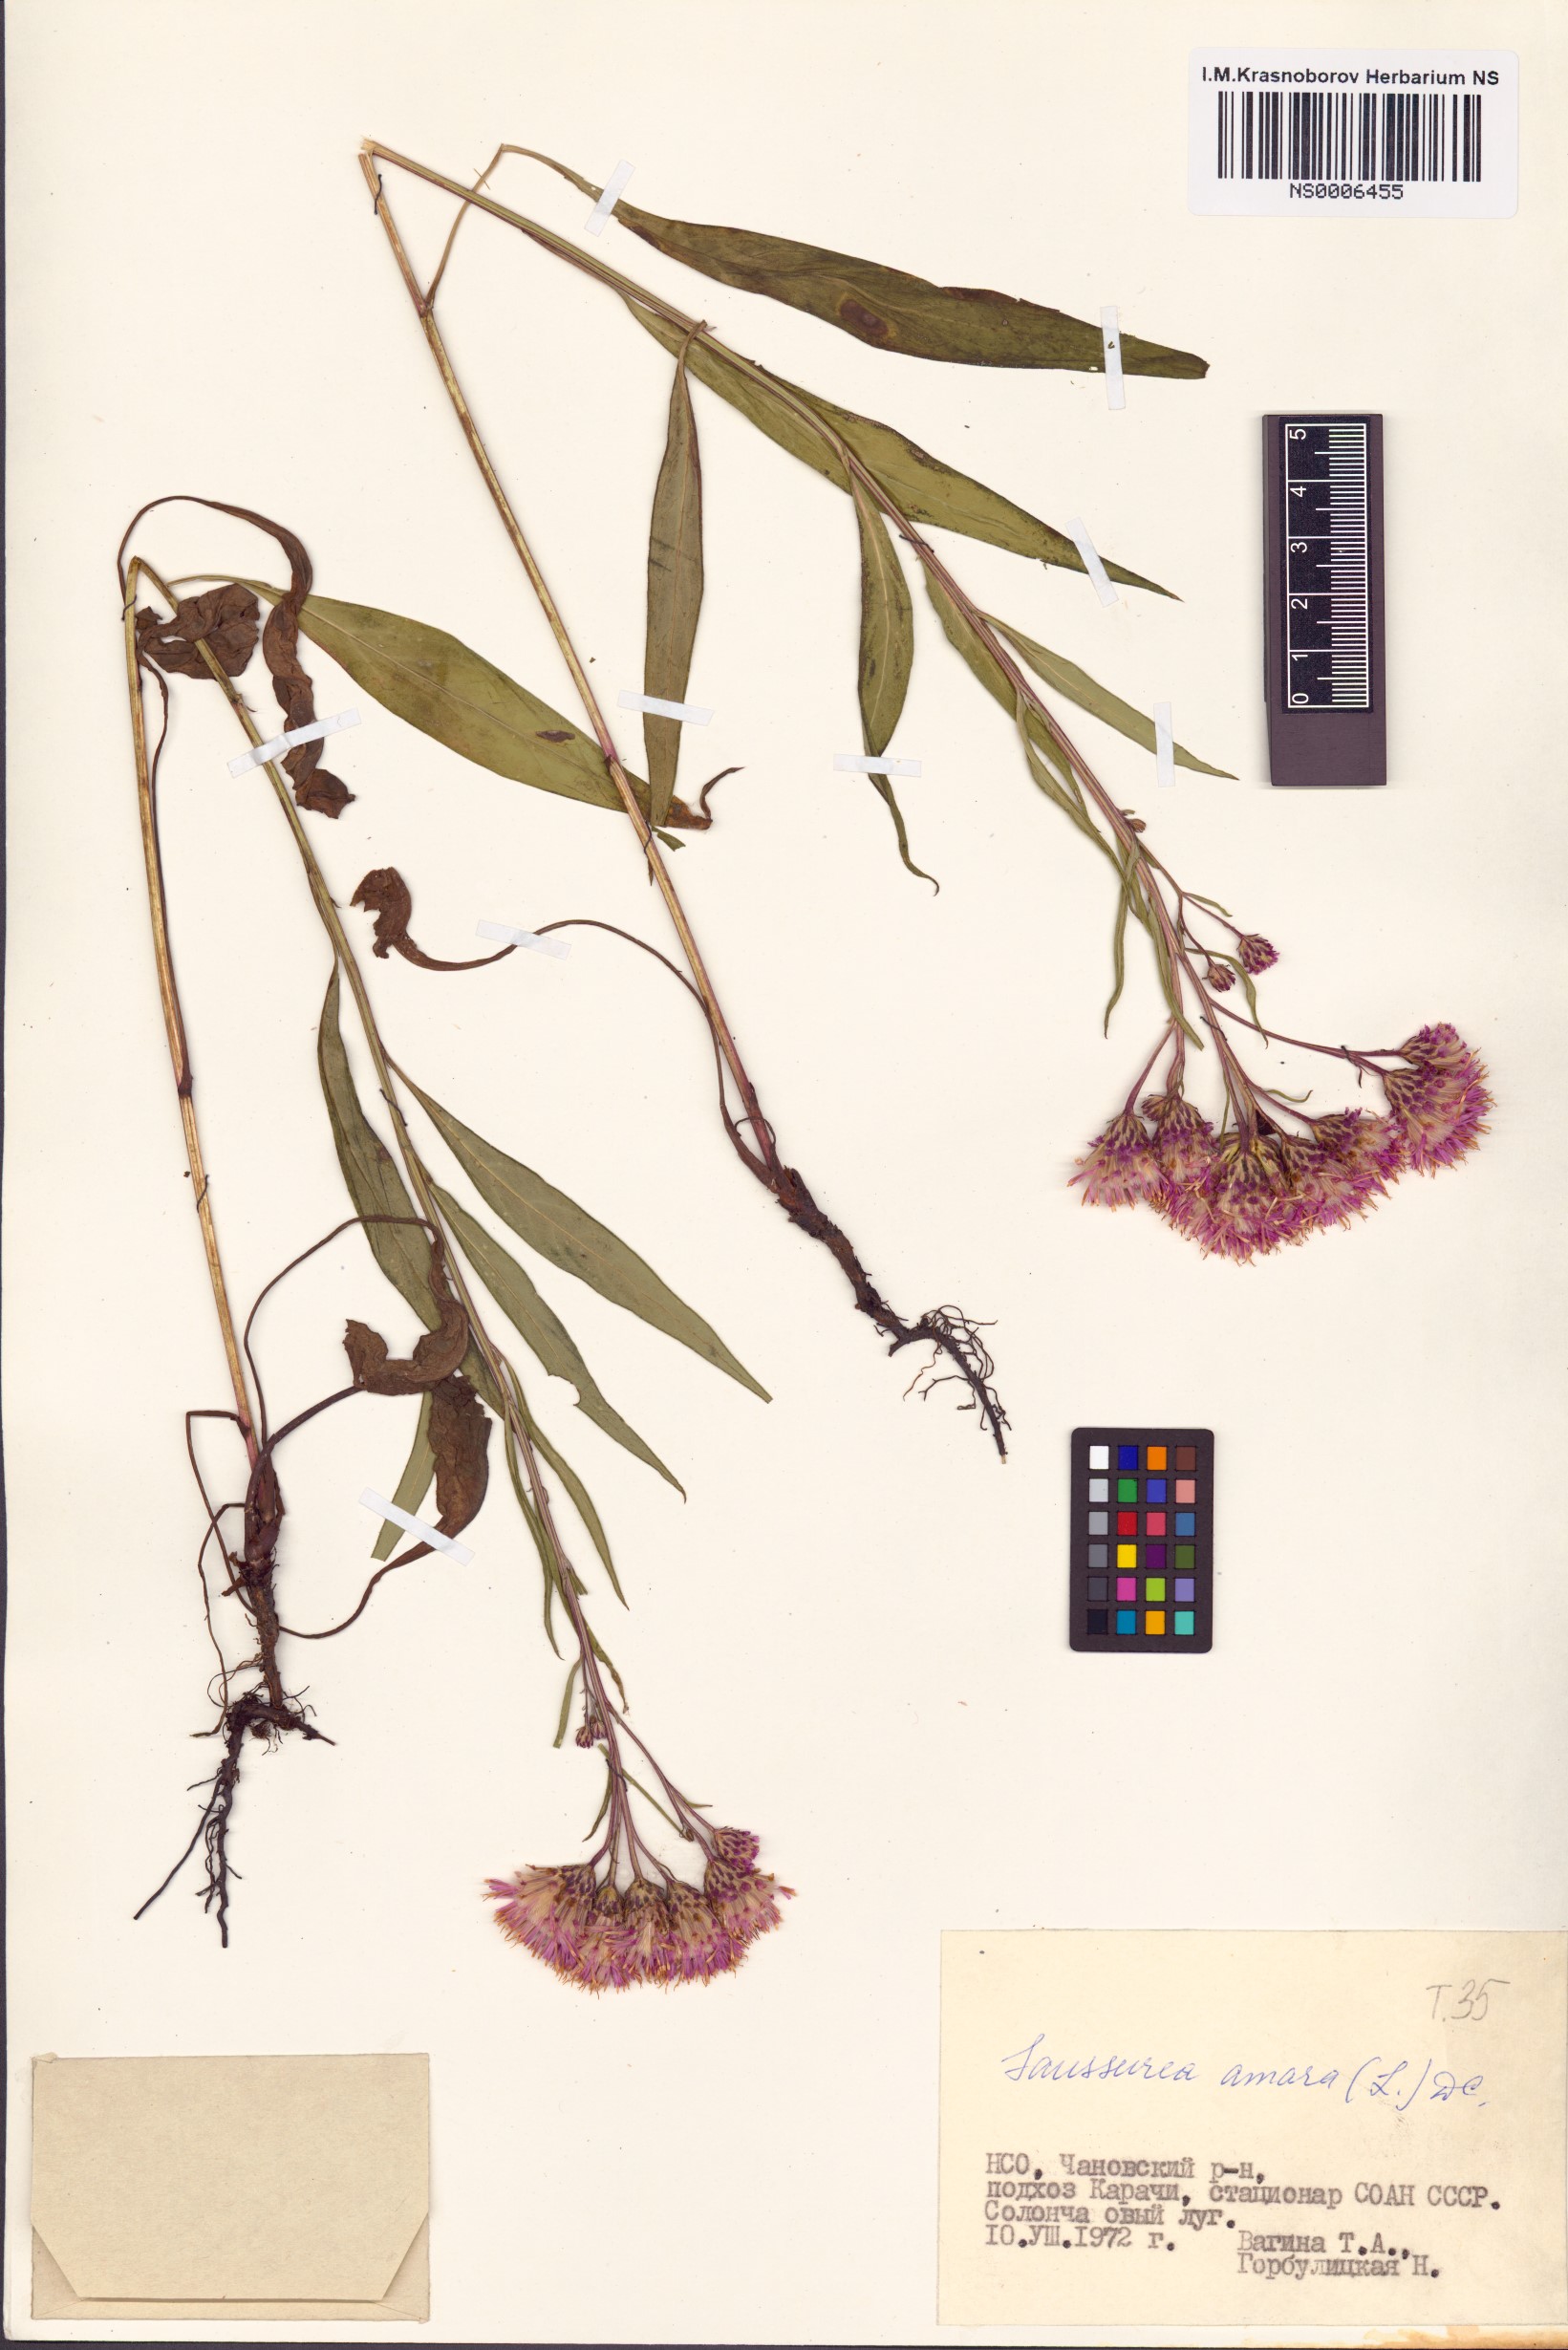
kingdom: Plantae
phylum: Tracheophyta
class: Magnoliopsida
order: Asterales
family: Asteraceae
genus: Saussurea
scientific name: Saussurea amara
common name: Alberta sawwort
